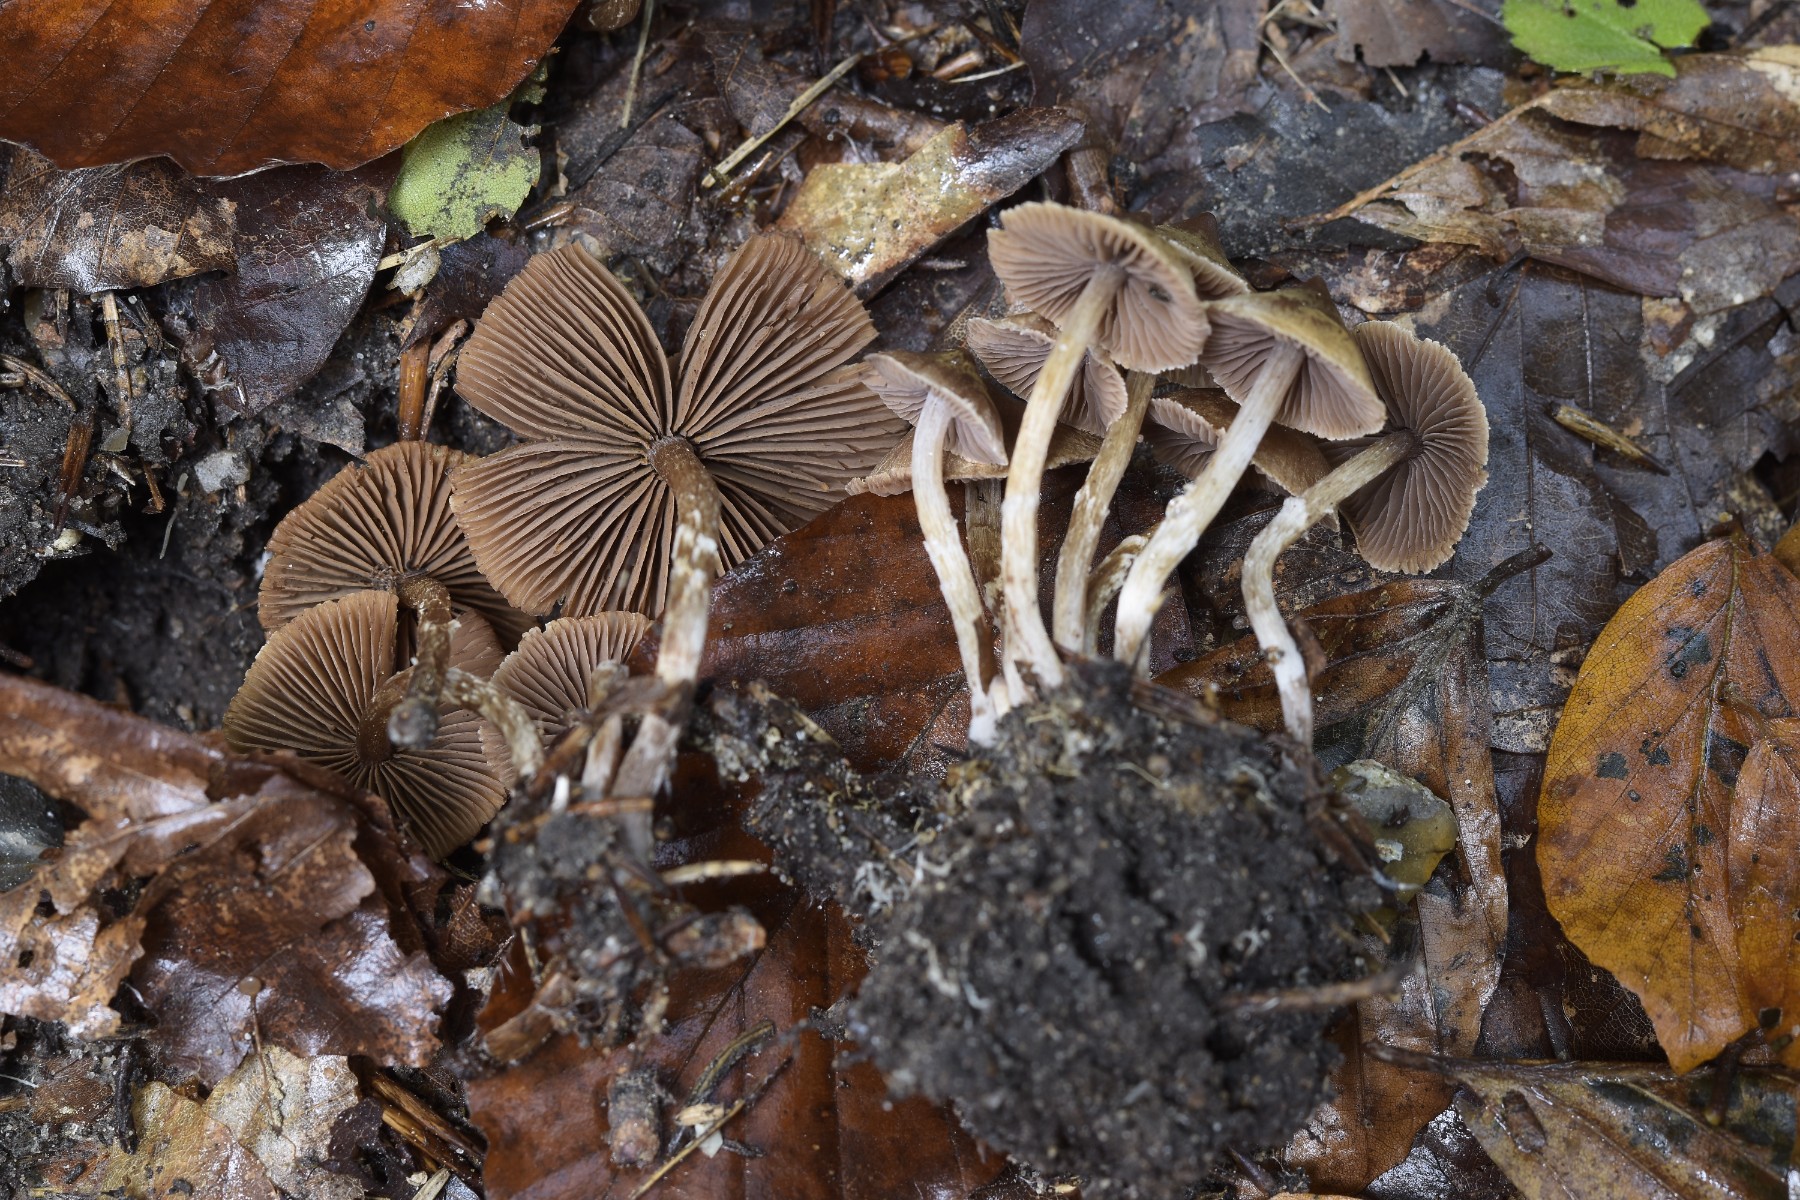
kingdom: Fungi
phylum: Basidiomycota
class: Agaricomycetes
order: Agaricales
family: Cortinariaceae
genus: Cortinarius
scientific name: Cortinarius desertorum
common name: skær slørhat
